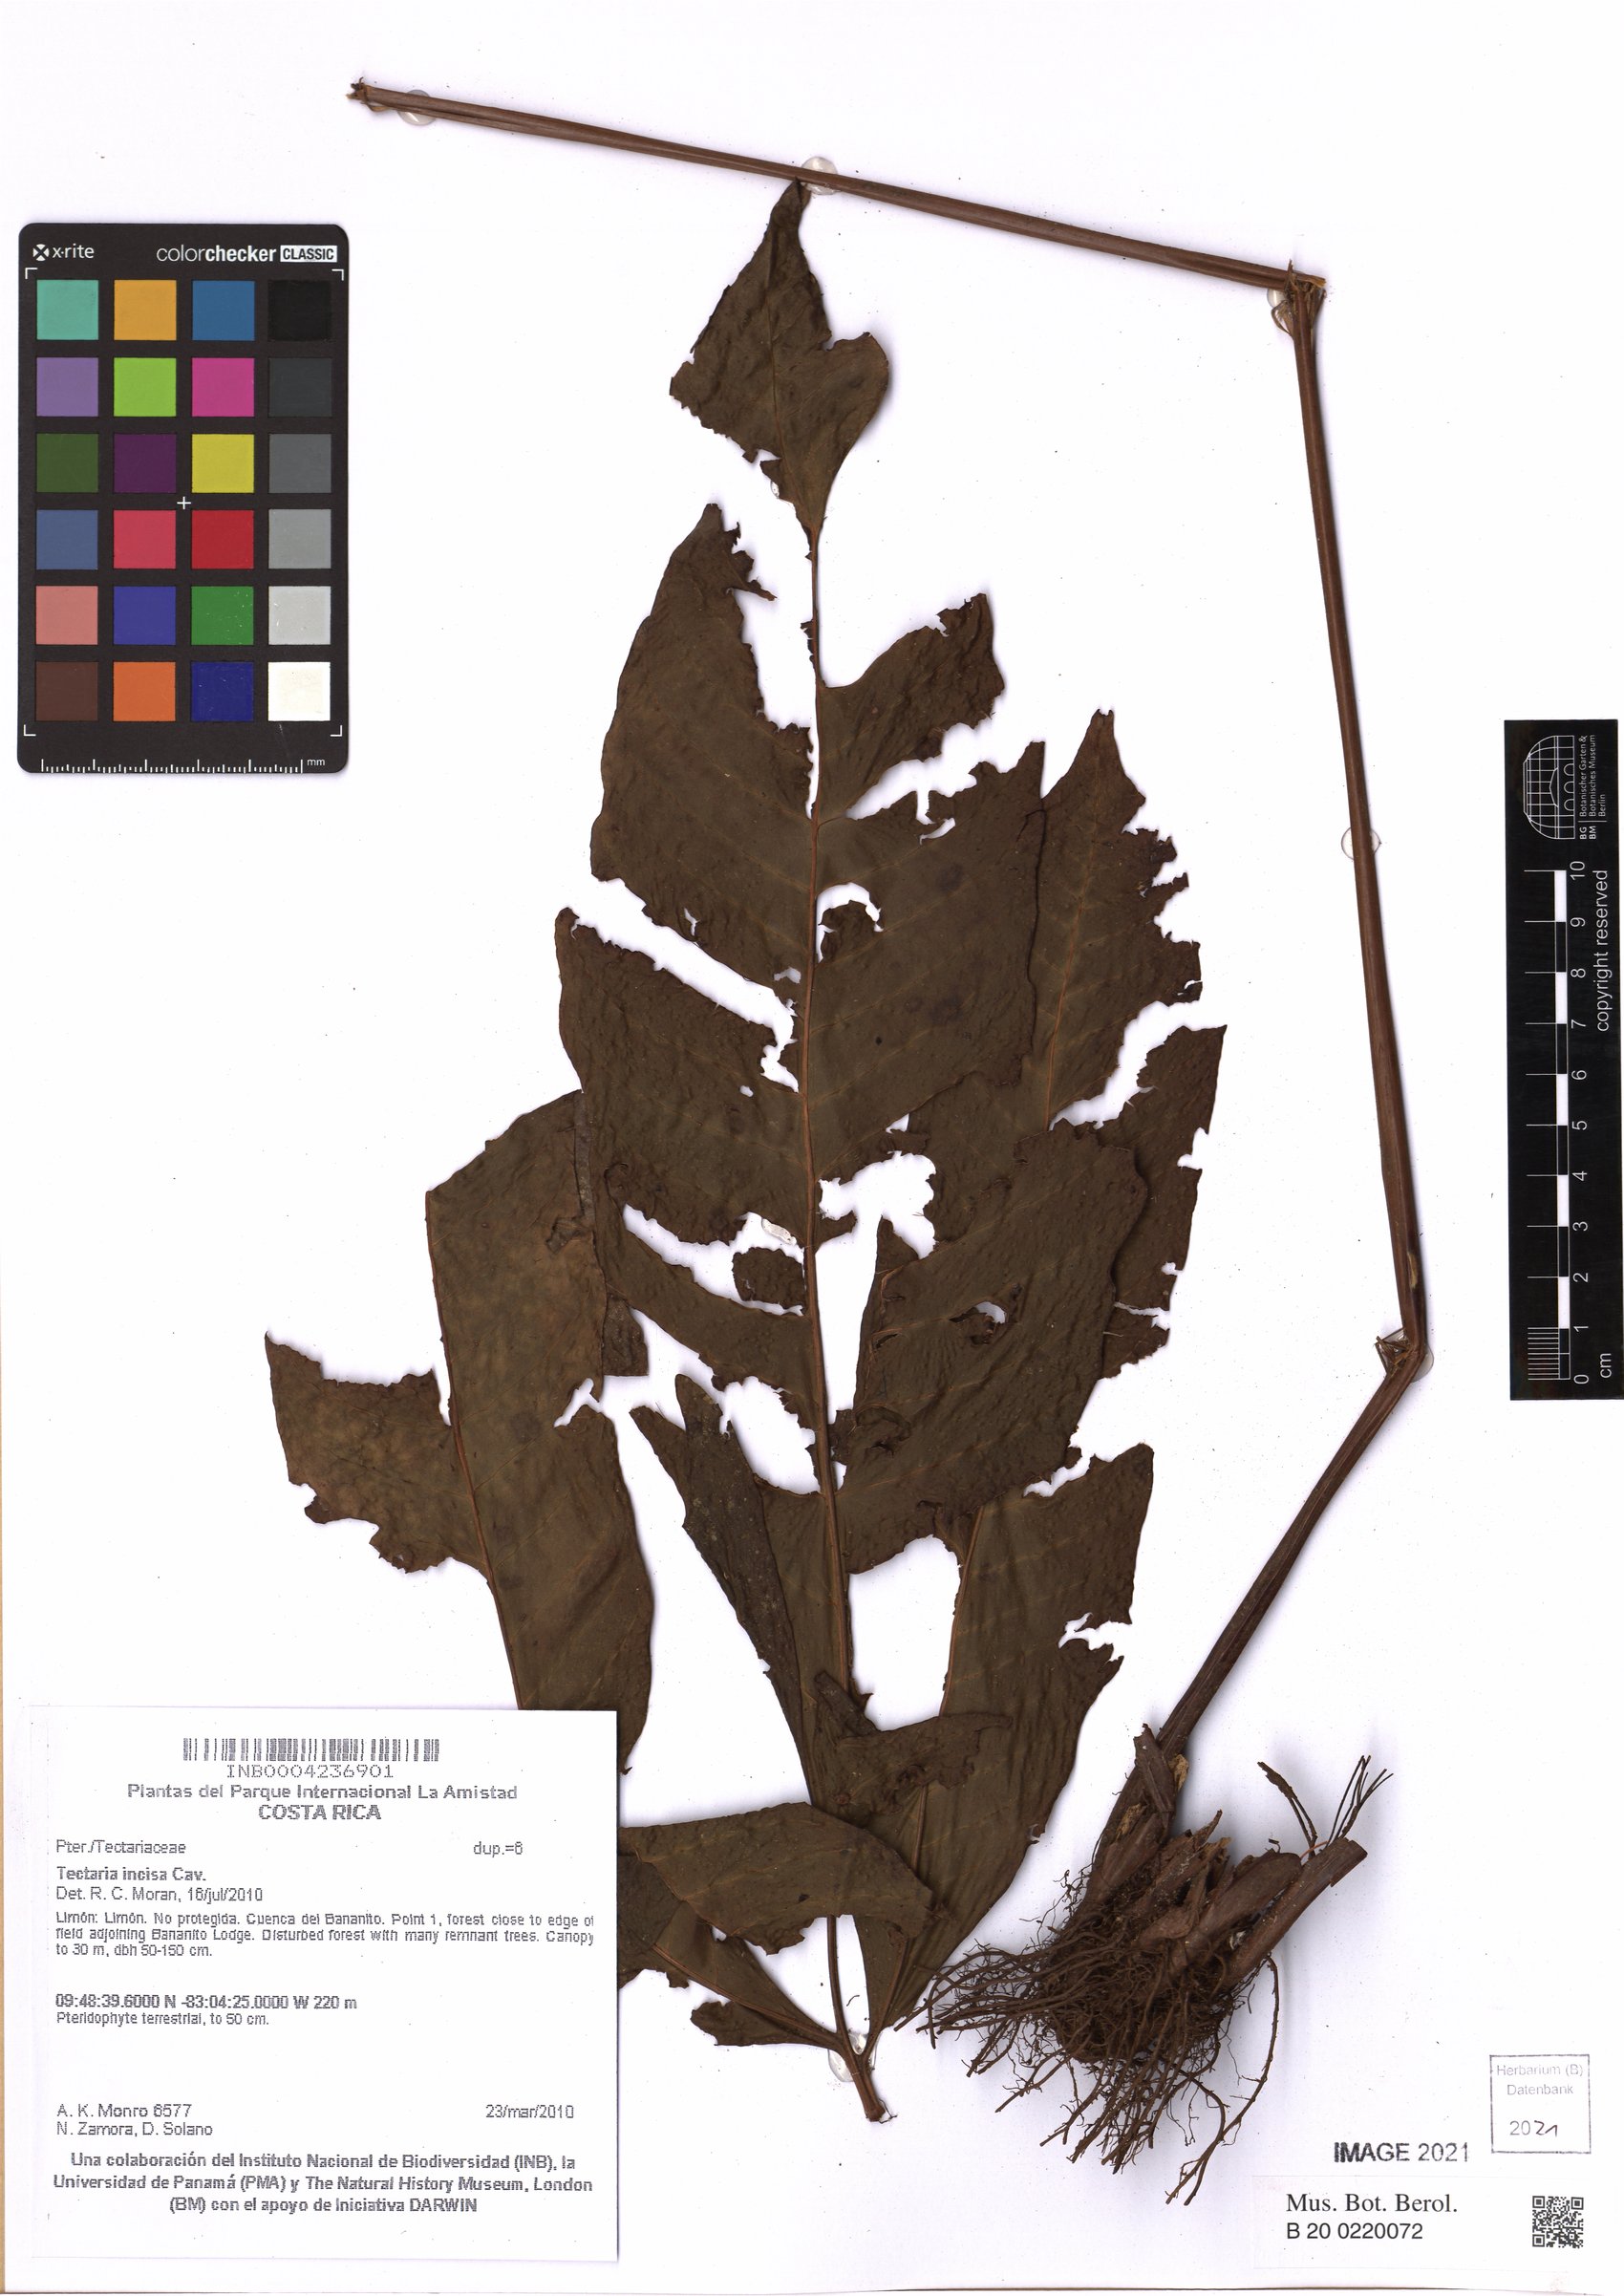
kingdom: Plantae
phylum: Tracheophyta
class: Polypodiopsida
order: Polypodiales
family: Tectariaceae
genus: Tectaria
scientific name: Tectaria incisa
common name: Incised halberd fern
